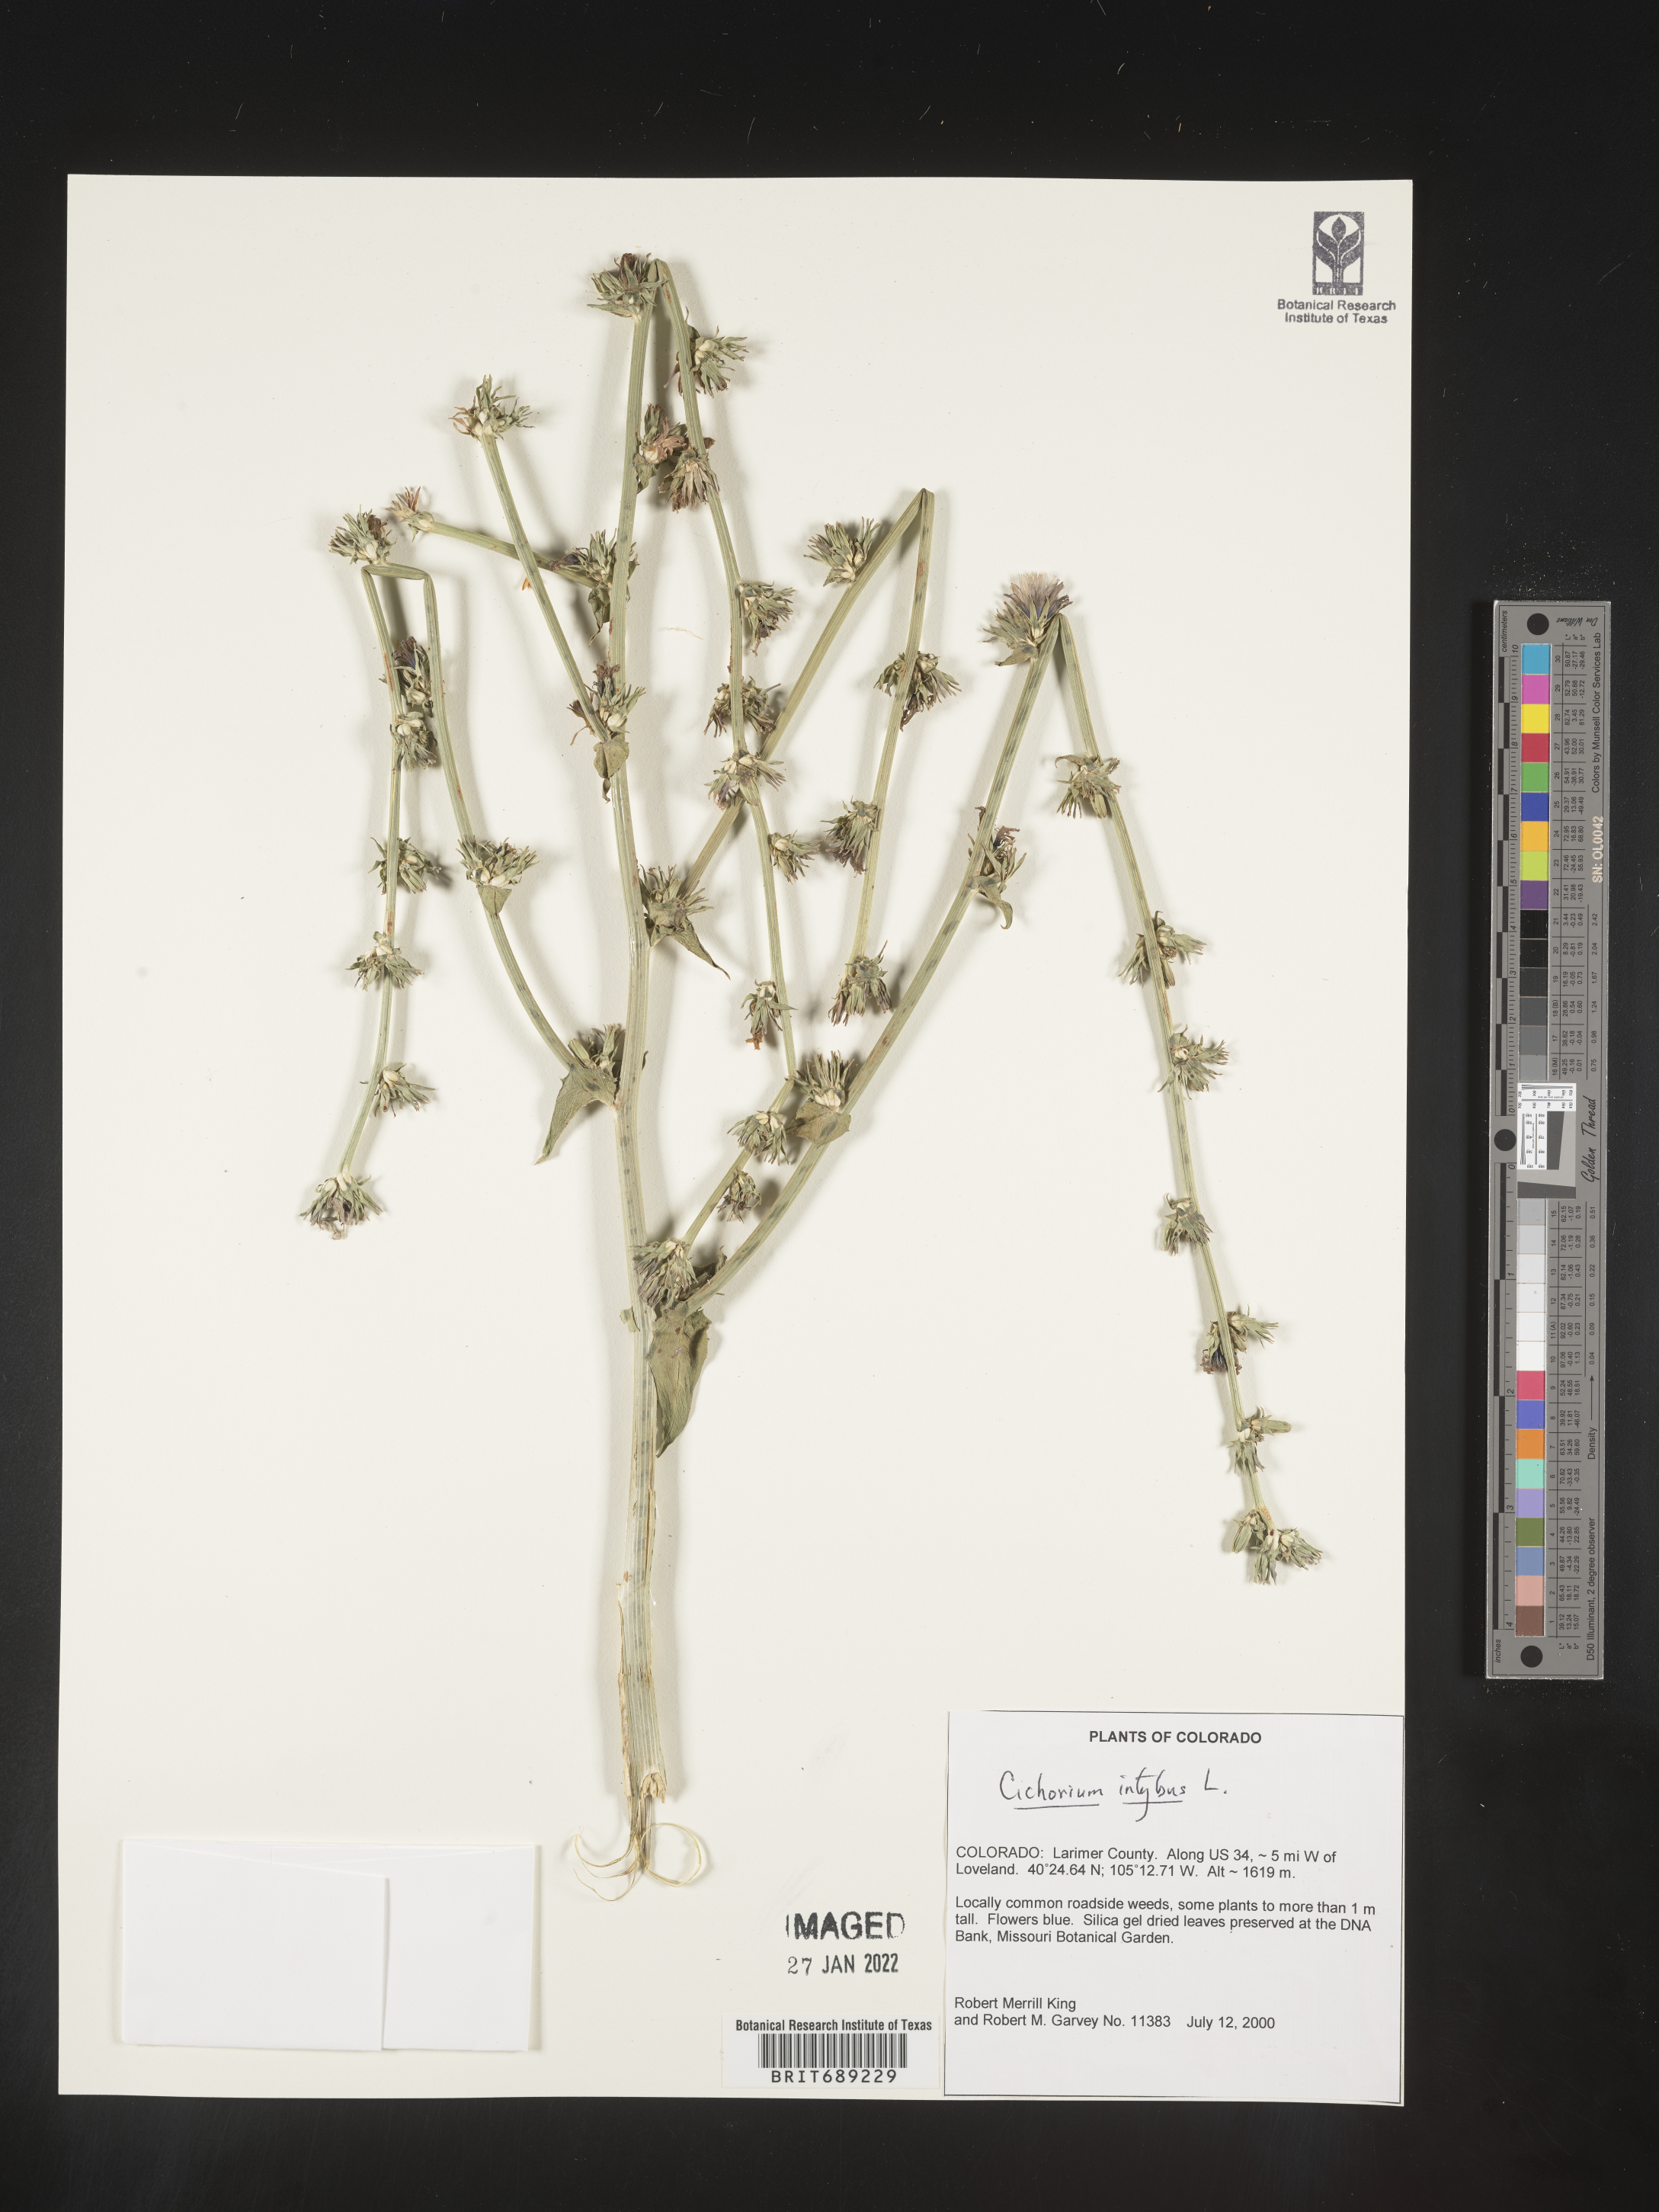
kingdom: Plantae
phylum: Tracheophyta
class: Magnoliopsida
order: Asterales
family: Asteraceae
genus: Cichorium
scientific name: Cichorium intybus
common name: Chicory
